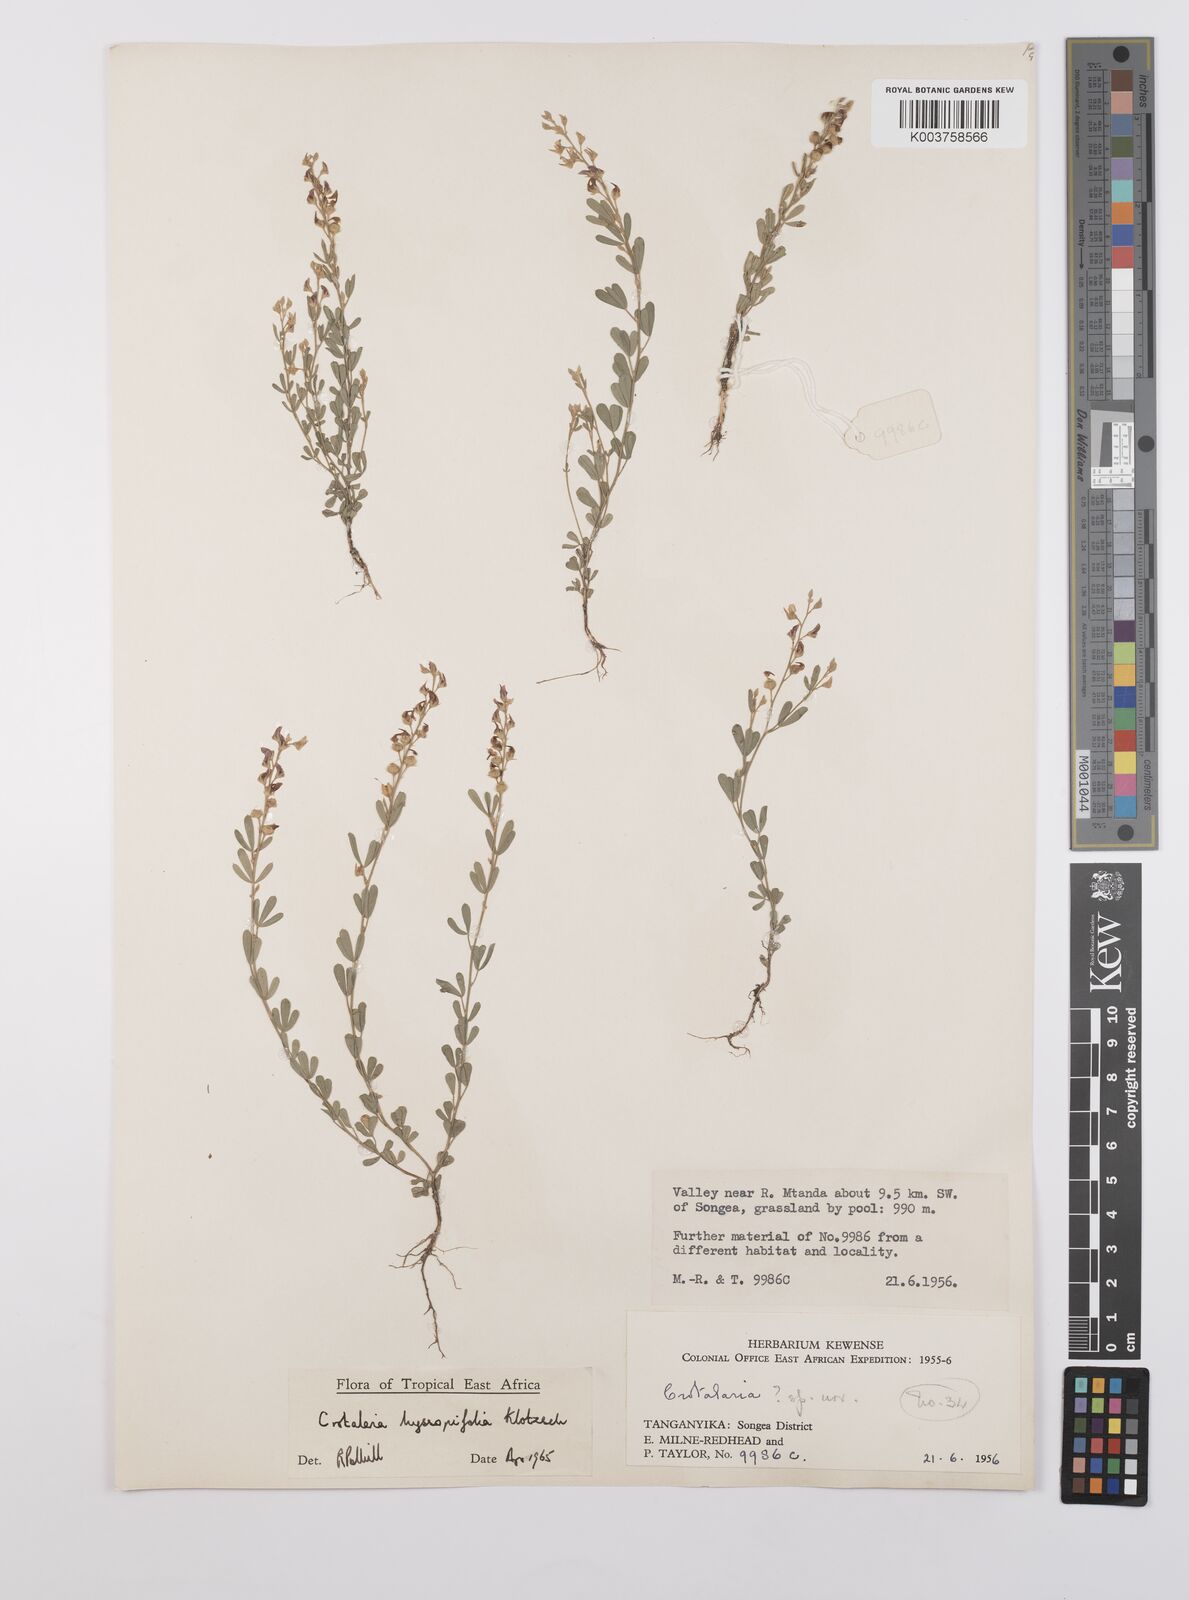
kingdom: Plantae
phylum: Tracheophyta
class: Magnoliopsida
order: Fabales
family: Fabaceae
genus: Crotalaria
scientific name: Crotalaria hyssopifolia
